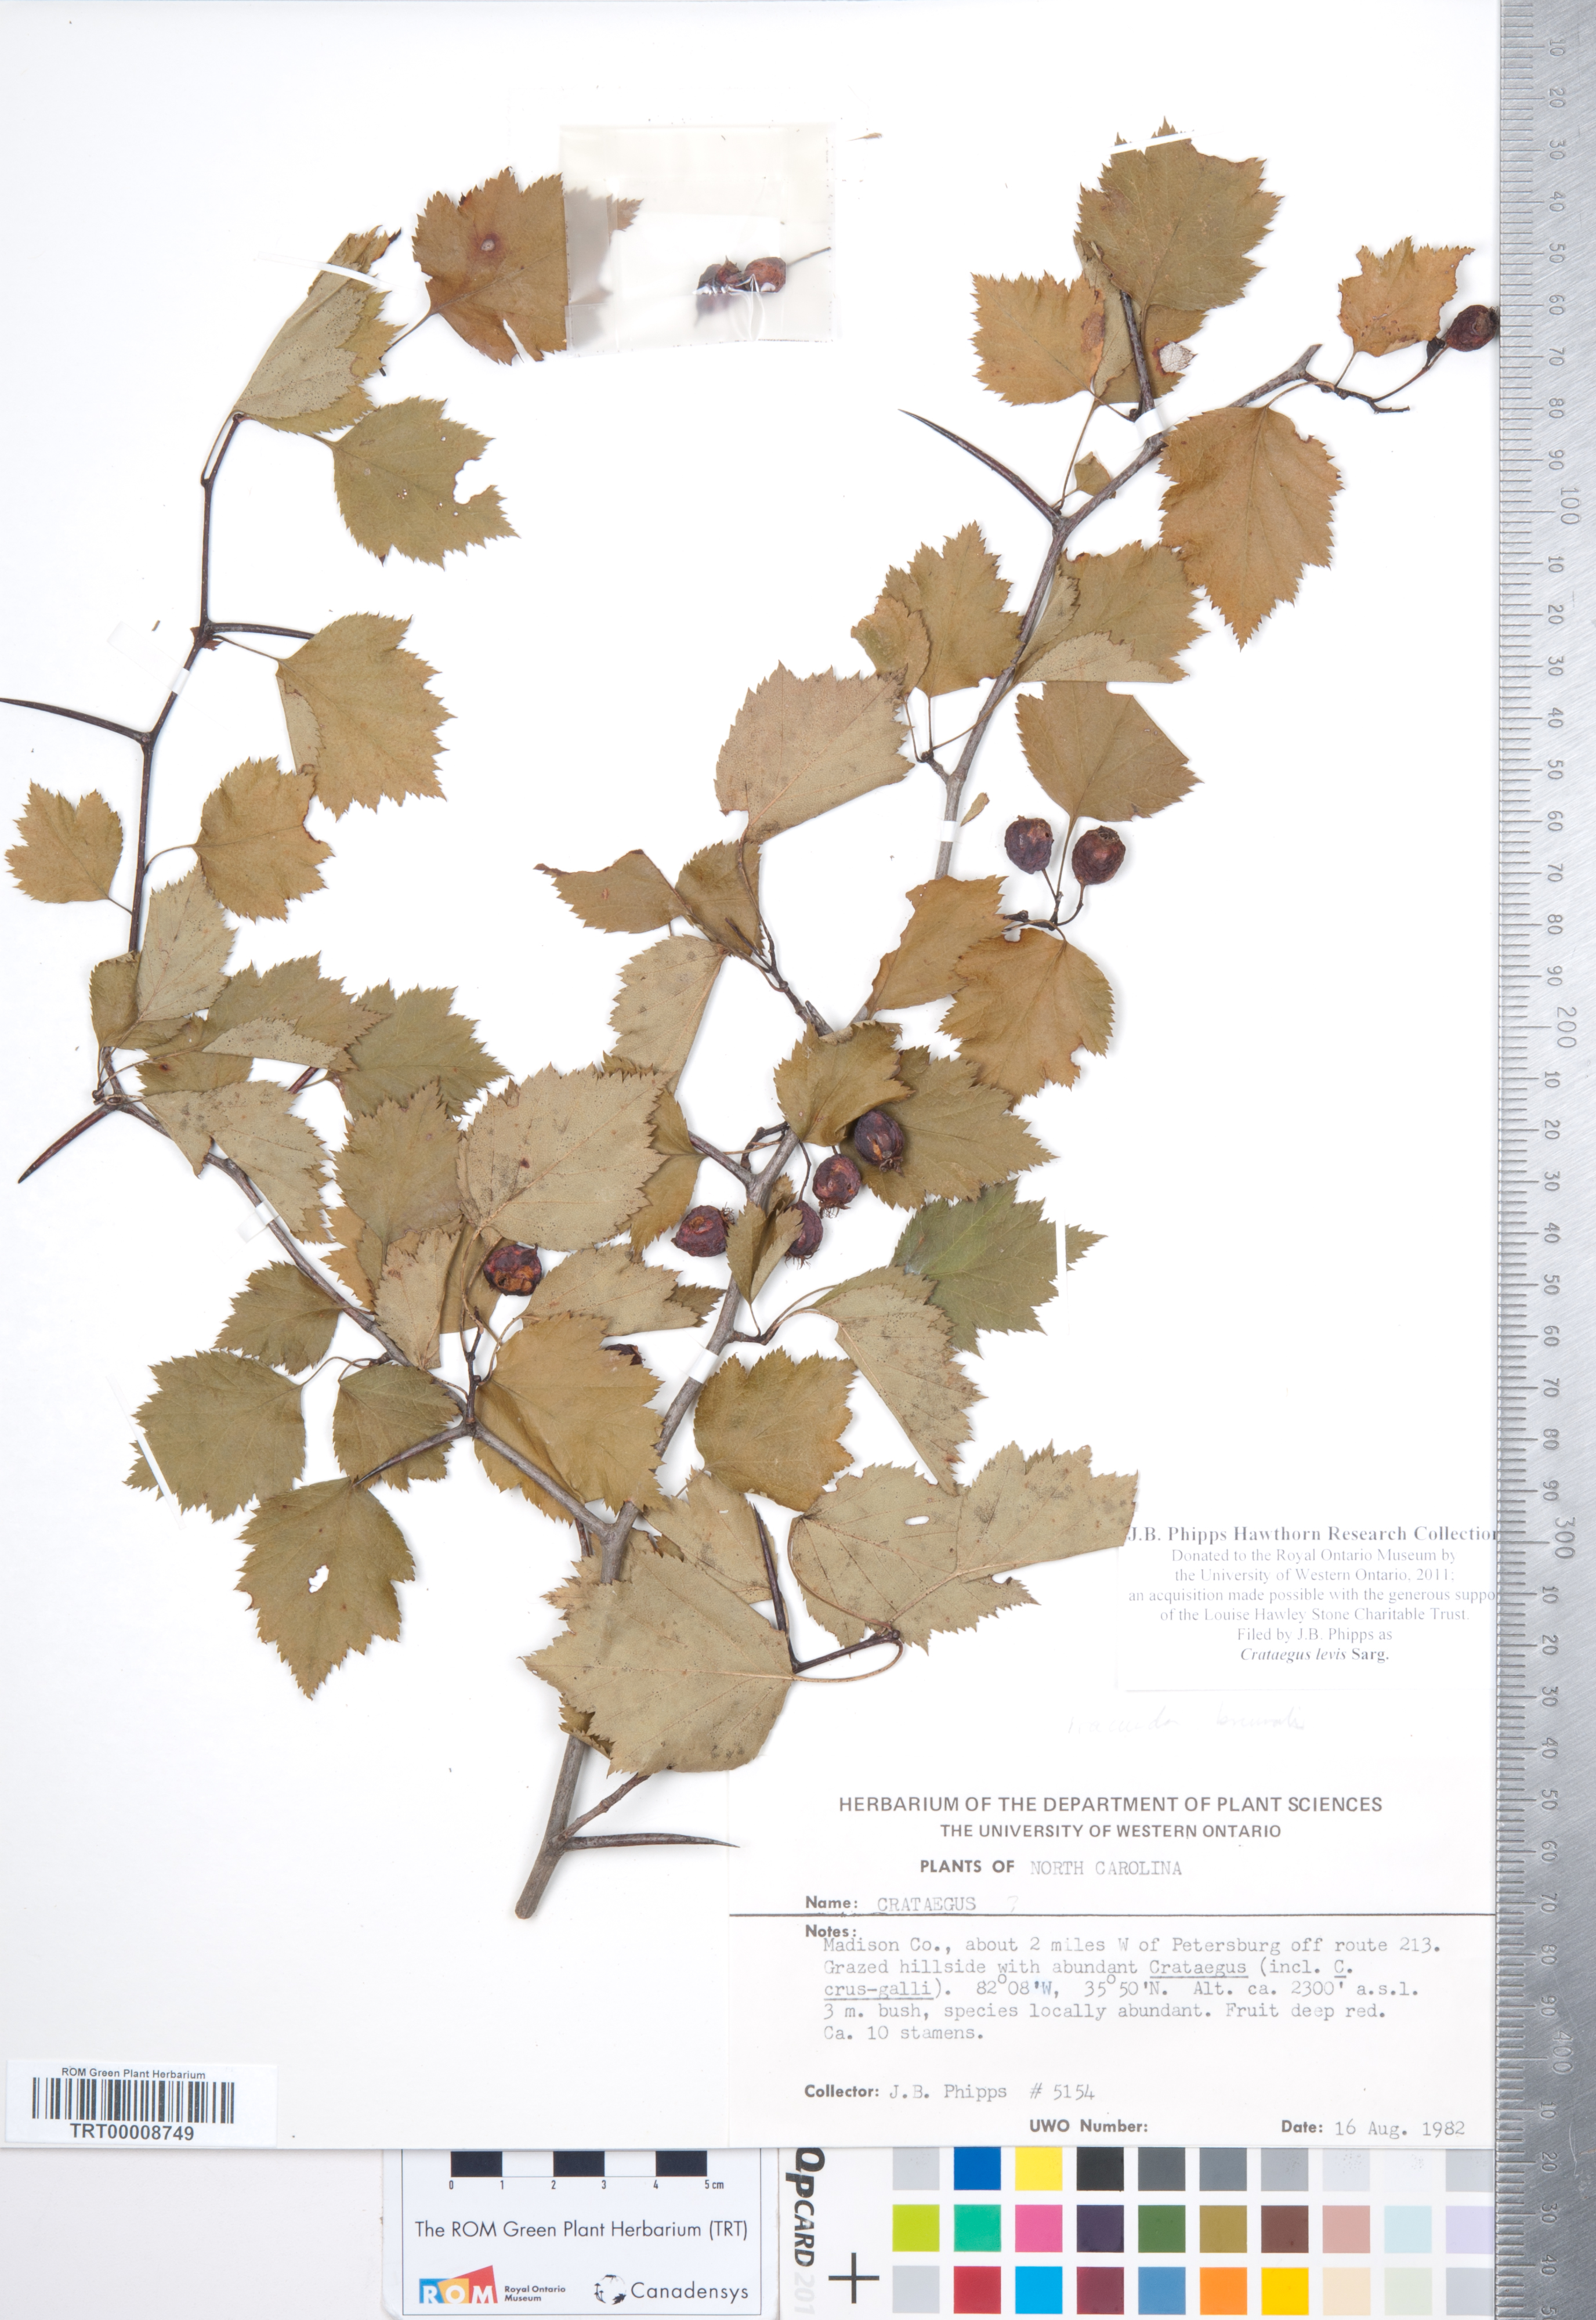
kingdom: Plantae
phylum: Tracheophyta
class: Magnoliopsida
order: Rosales
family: Rosaceae
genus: Crataegus
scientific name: Crataegus iracunda
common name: Stolon-bearing hawthorn
